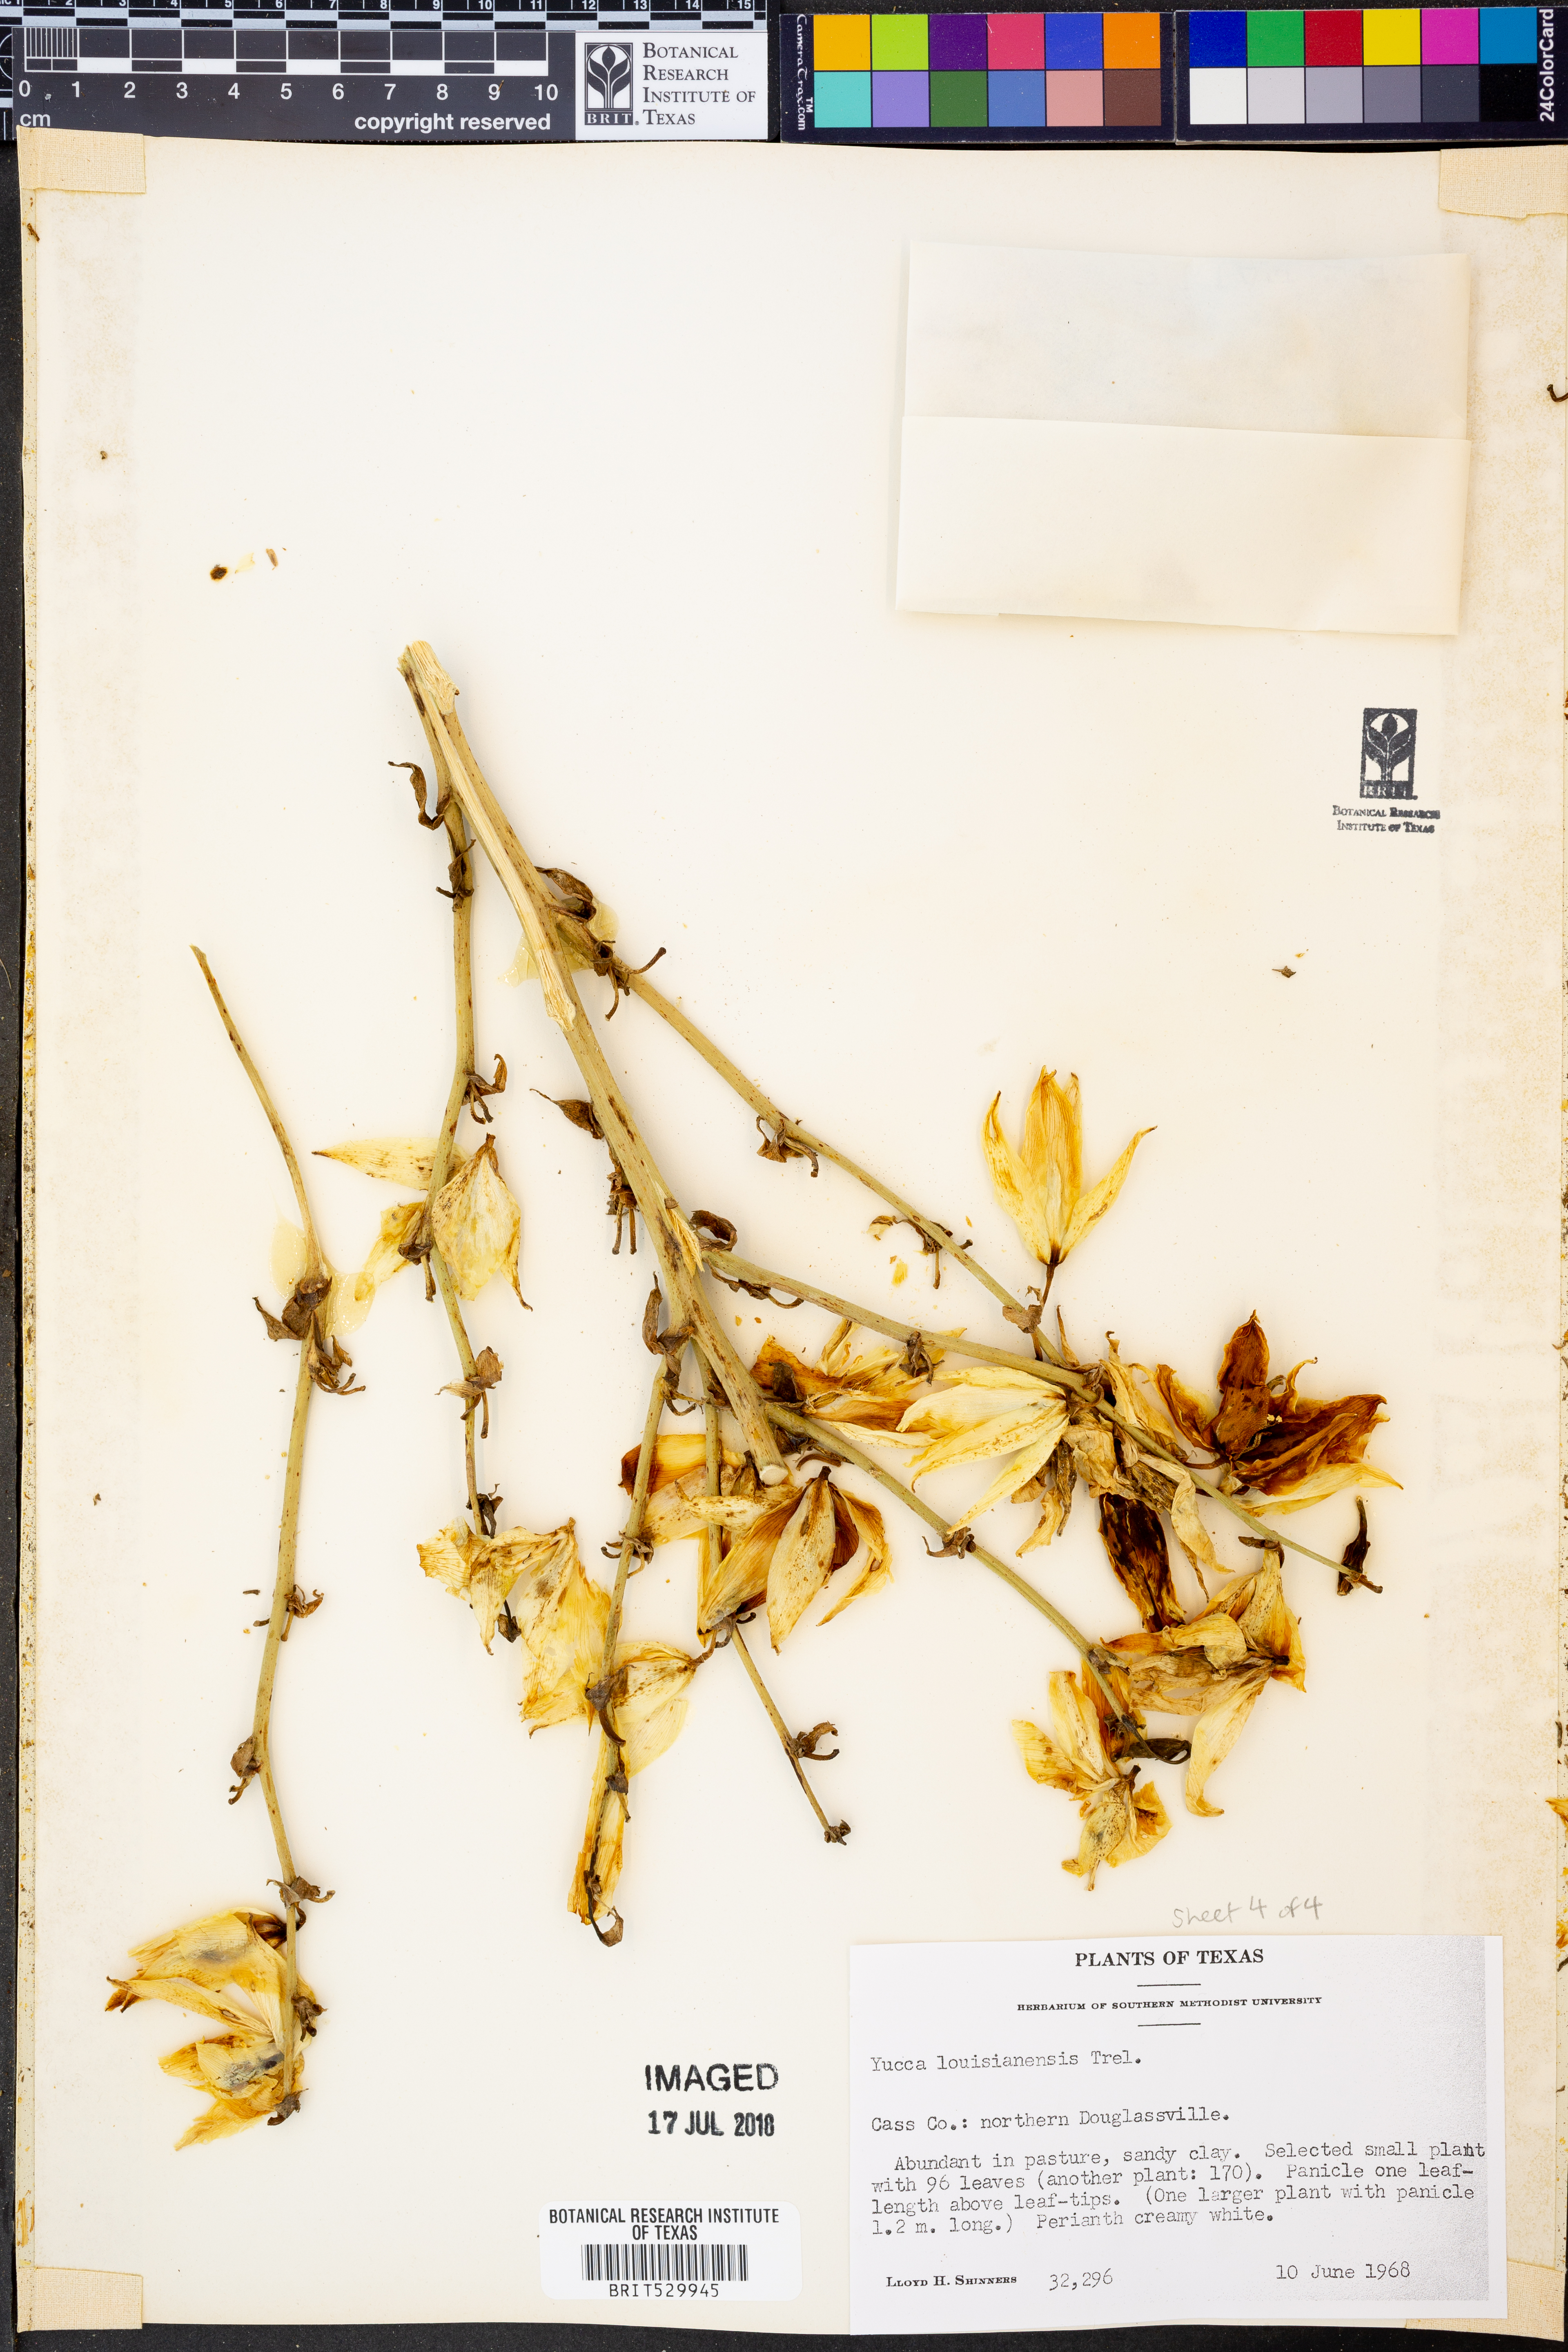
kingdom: Plantae
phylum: Tracheophyta
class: Liliopsida
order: Asparagales
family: Asparagaceae
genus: Yucca
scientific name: Yucca flaccida
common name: Adam's-needle
